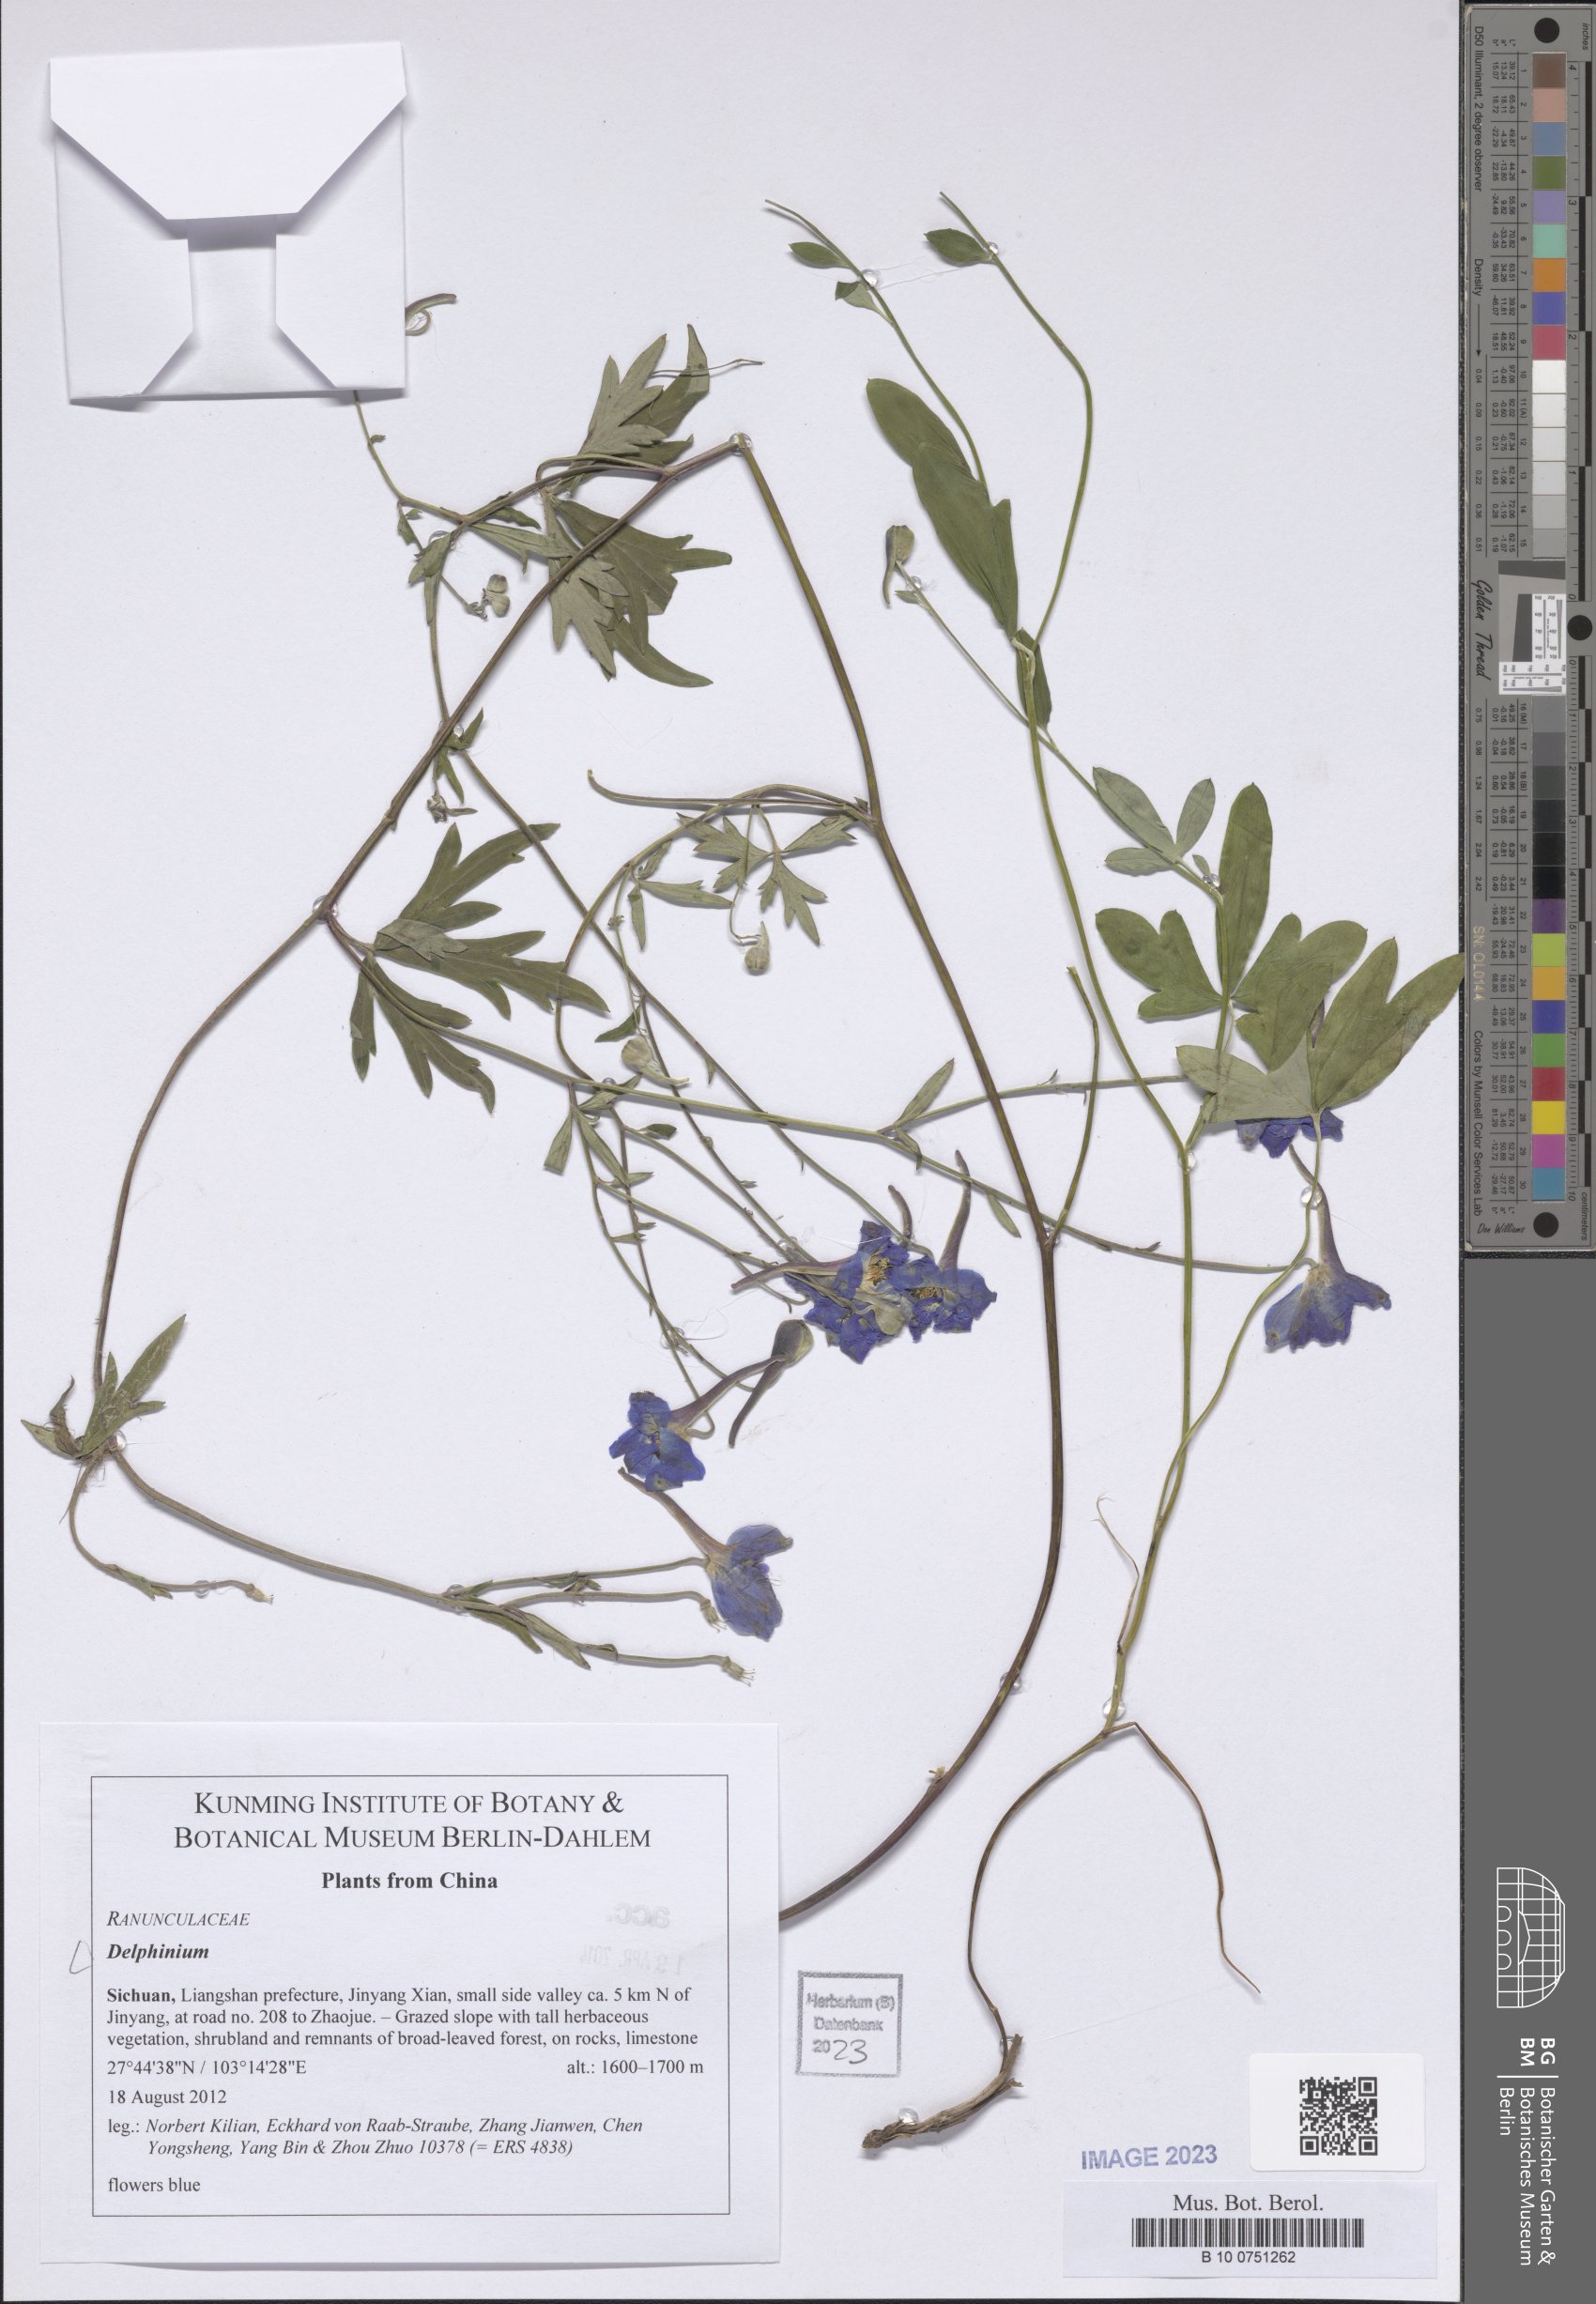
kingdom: Plantae
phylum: Tracheophyta
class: Magnoliopsida
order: Ranunculales
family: Ranunculaceae
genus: Delphinium
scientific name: Delphinium
